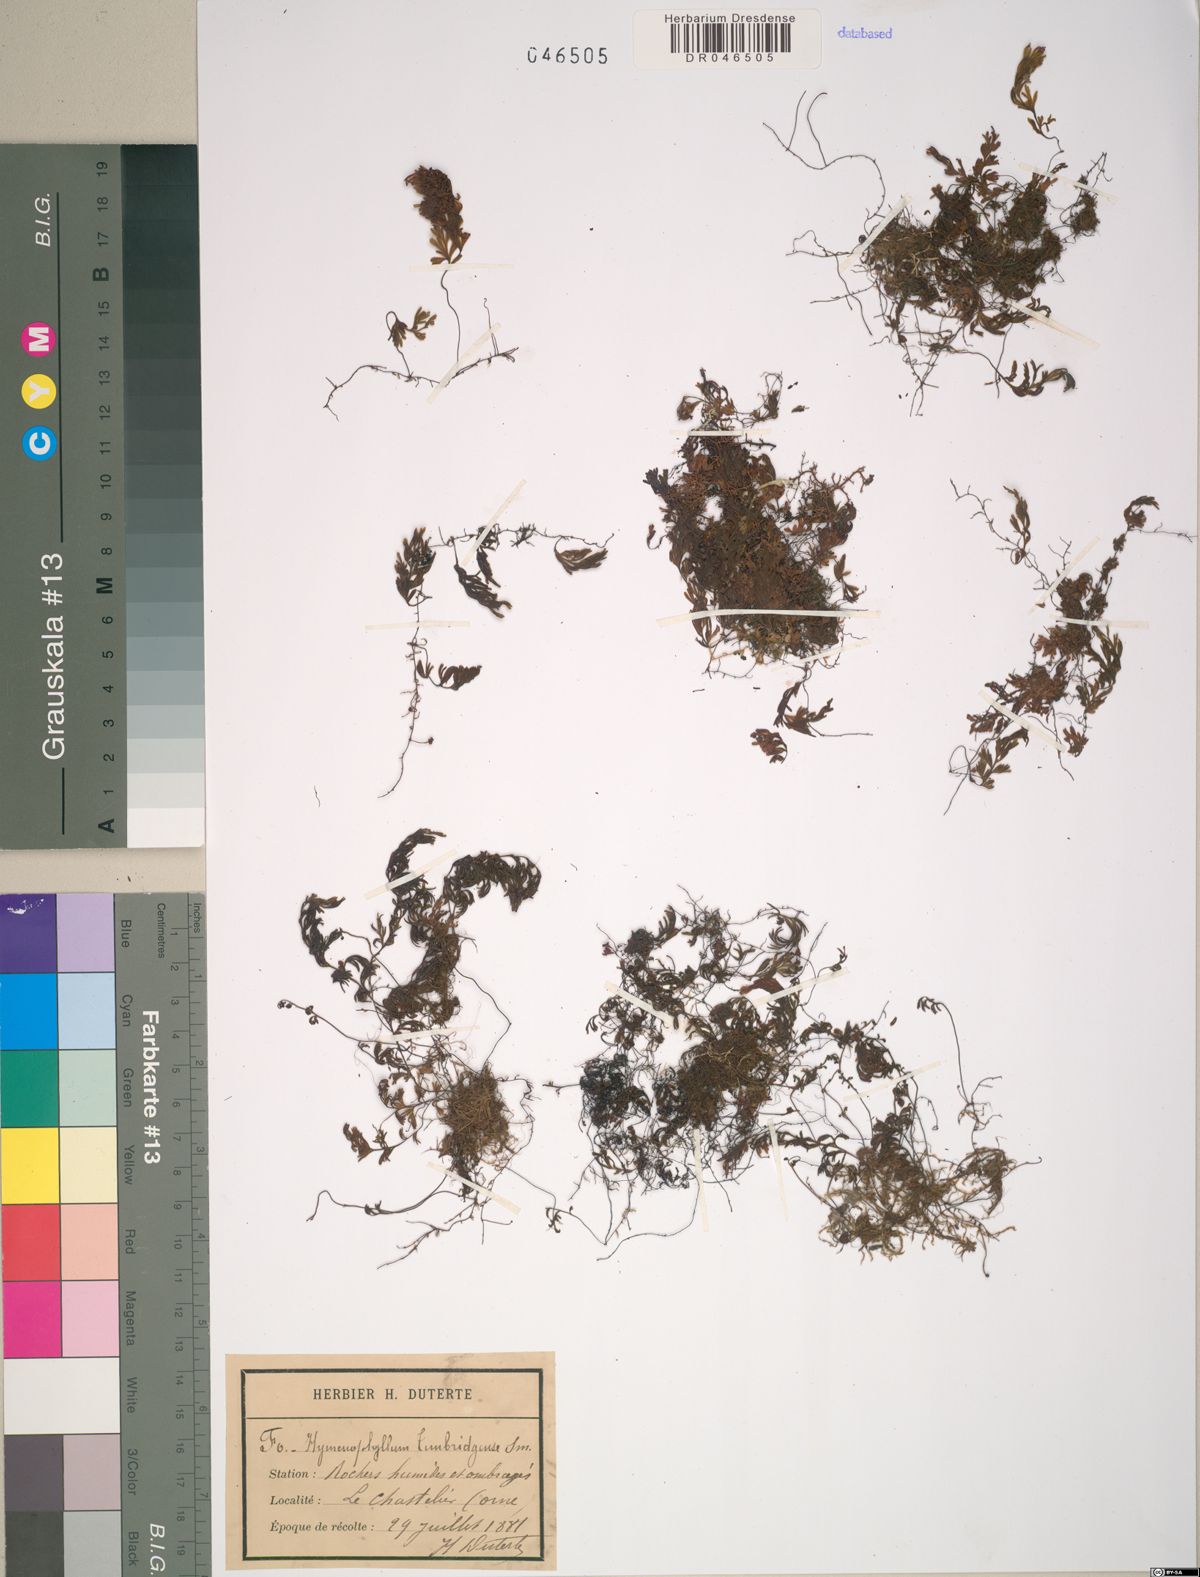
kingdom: Plantae
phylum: Tracheophyta
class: Polypodiopsida
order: Hymenophyllales
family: Hymenophyllaceae
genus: Hymenophyllum
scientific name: Hymenophyllum tunbrigense
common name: Tunbridge filmy fern
